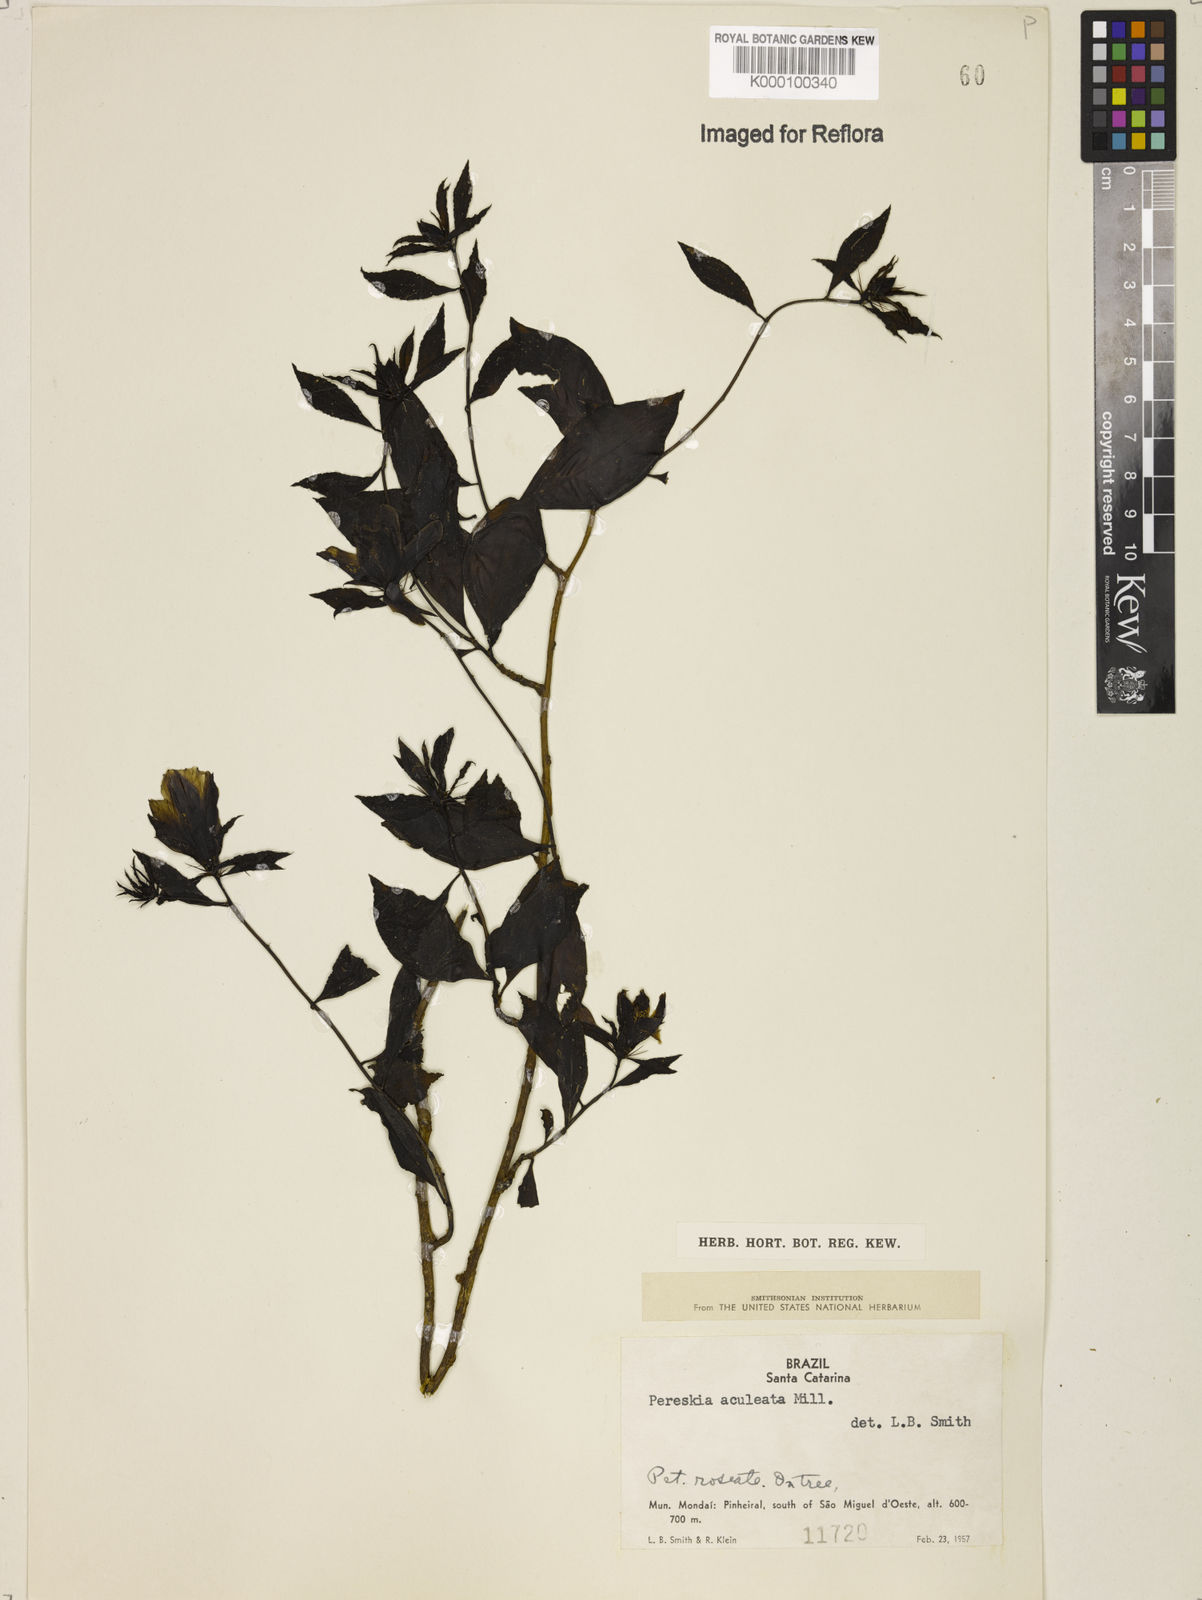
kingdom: Plantae
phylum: Tracheophyta
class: Magnoliopsida
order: Caryophyllales
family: Cactaceae
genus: Pereskia
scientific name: Pereskia aculeata
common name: Barbados gooseberry
